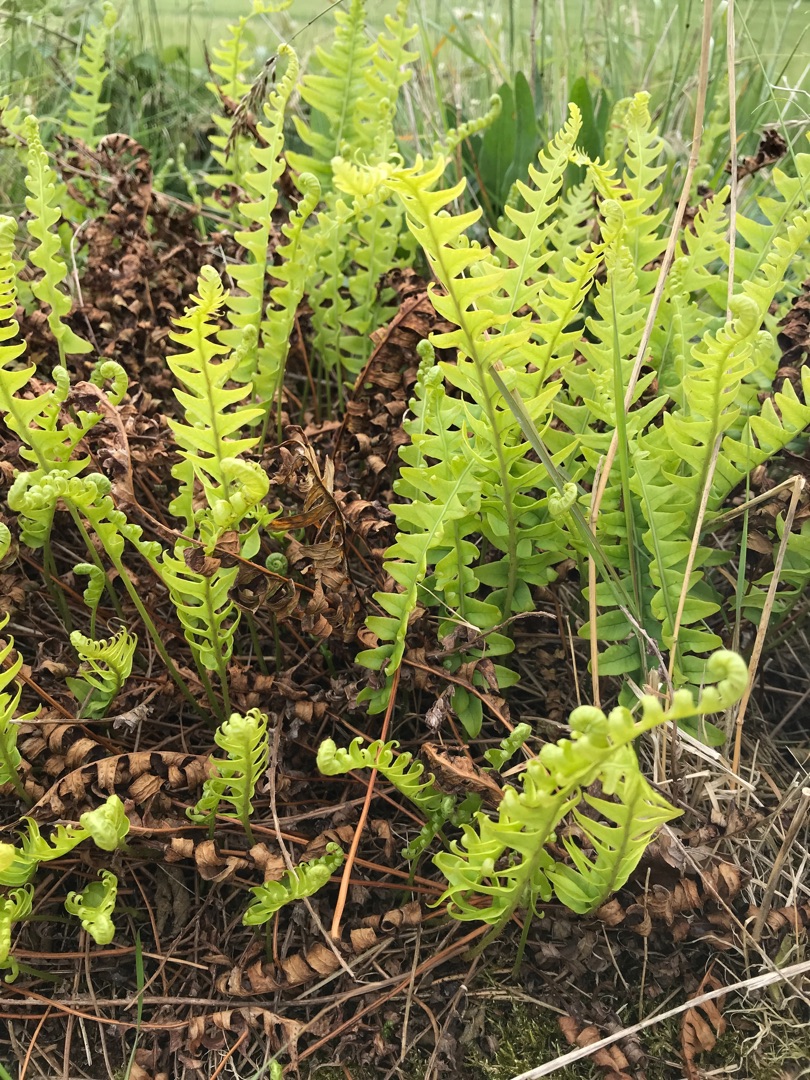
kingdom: Plantae
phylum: Tracheophyta
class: Polypodiopsida
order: Polypodiales
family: Polypodiaceae
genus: Polypodium
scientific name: Polypodium vulgare
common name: Almindelig engelsød
